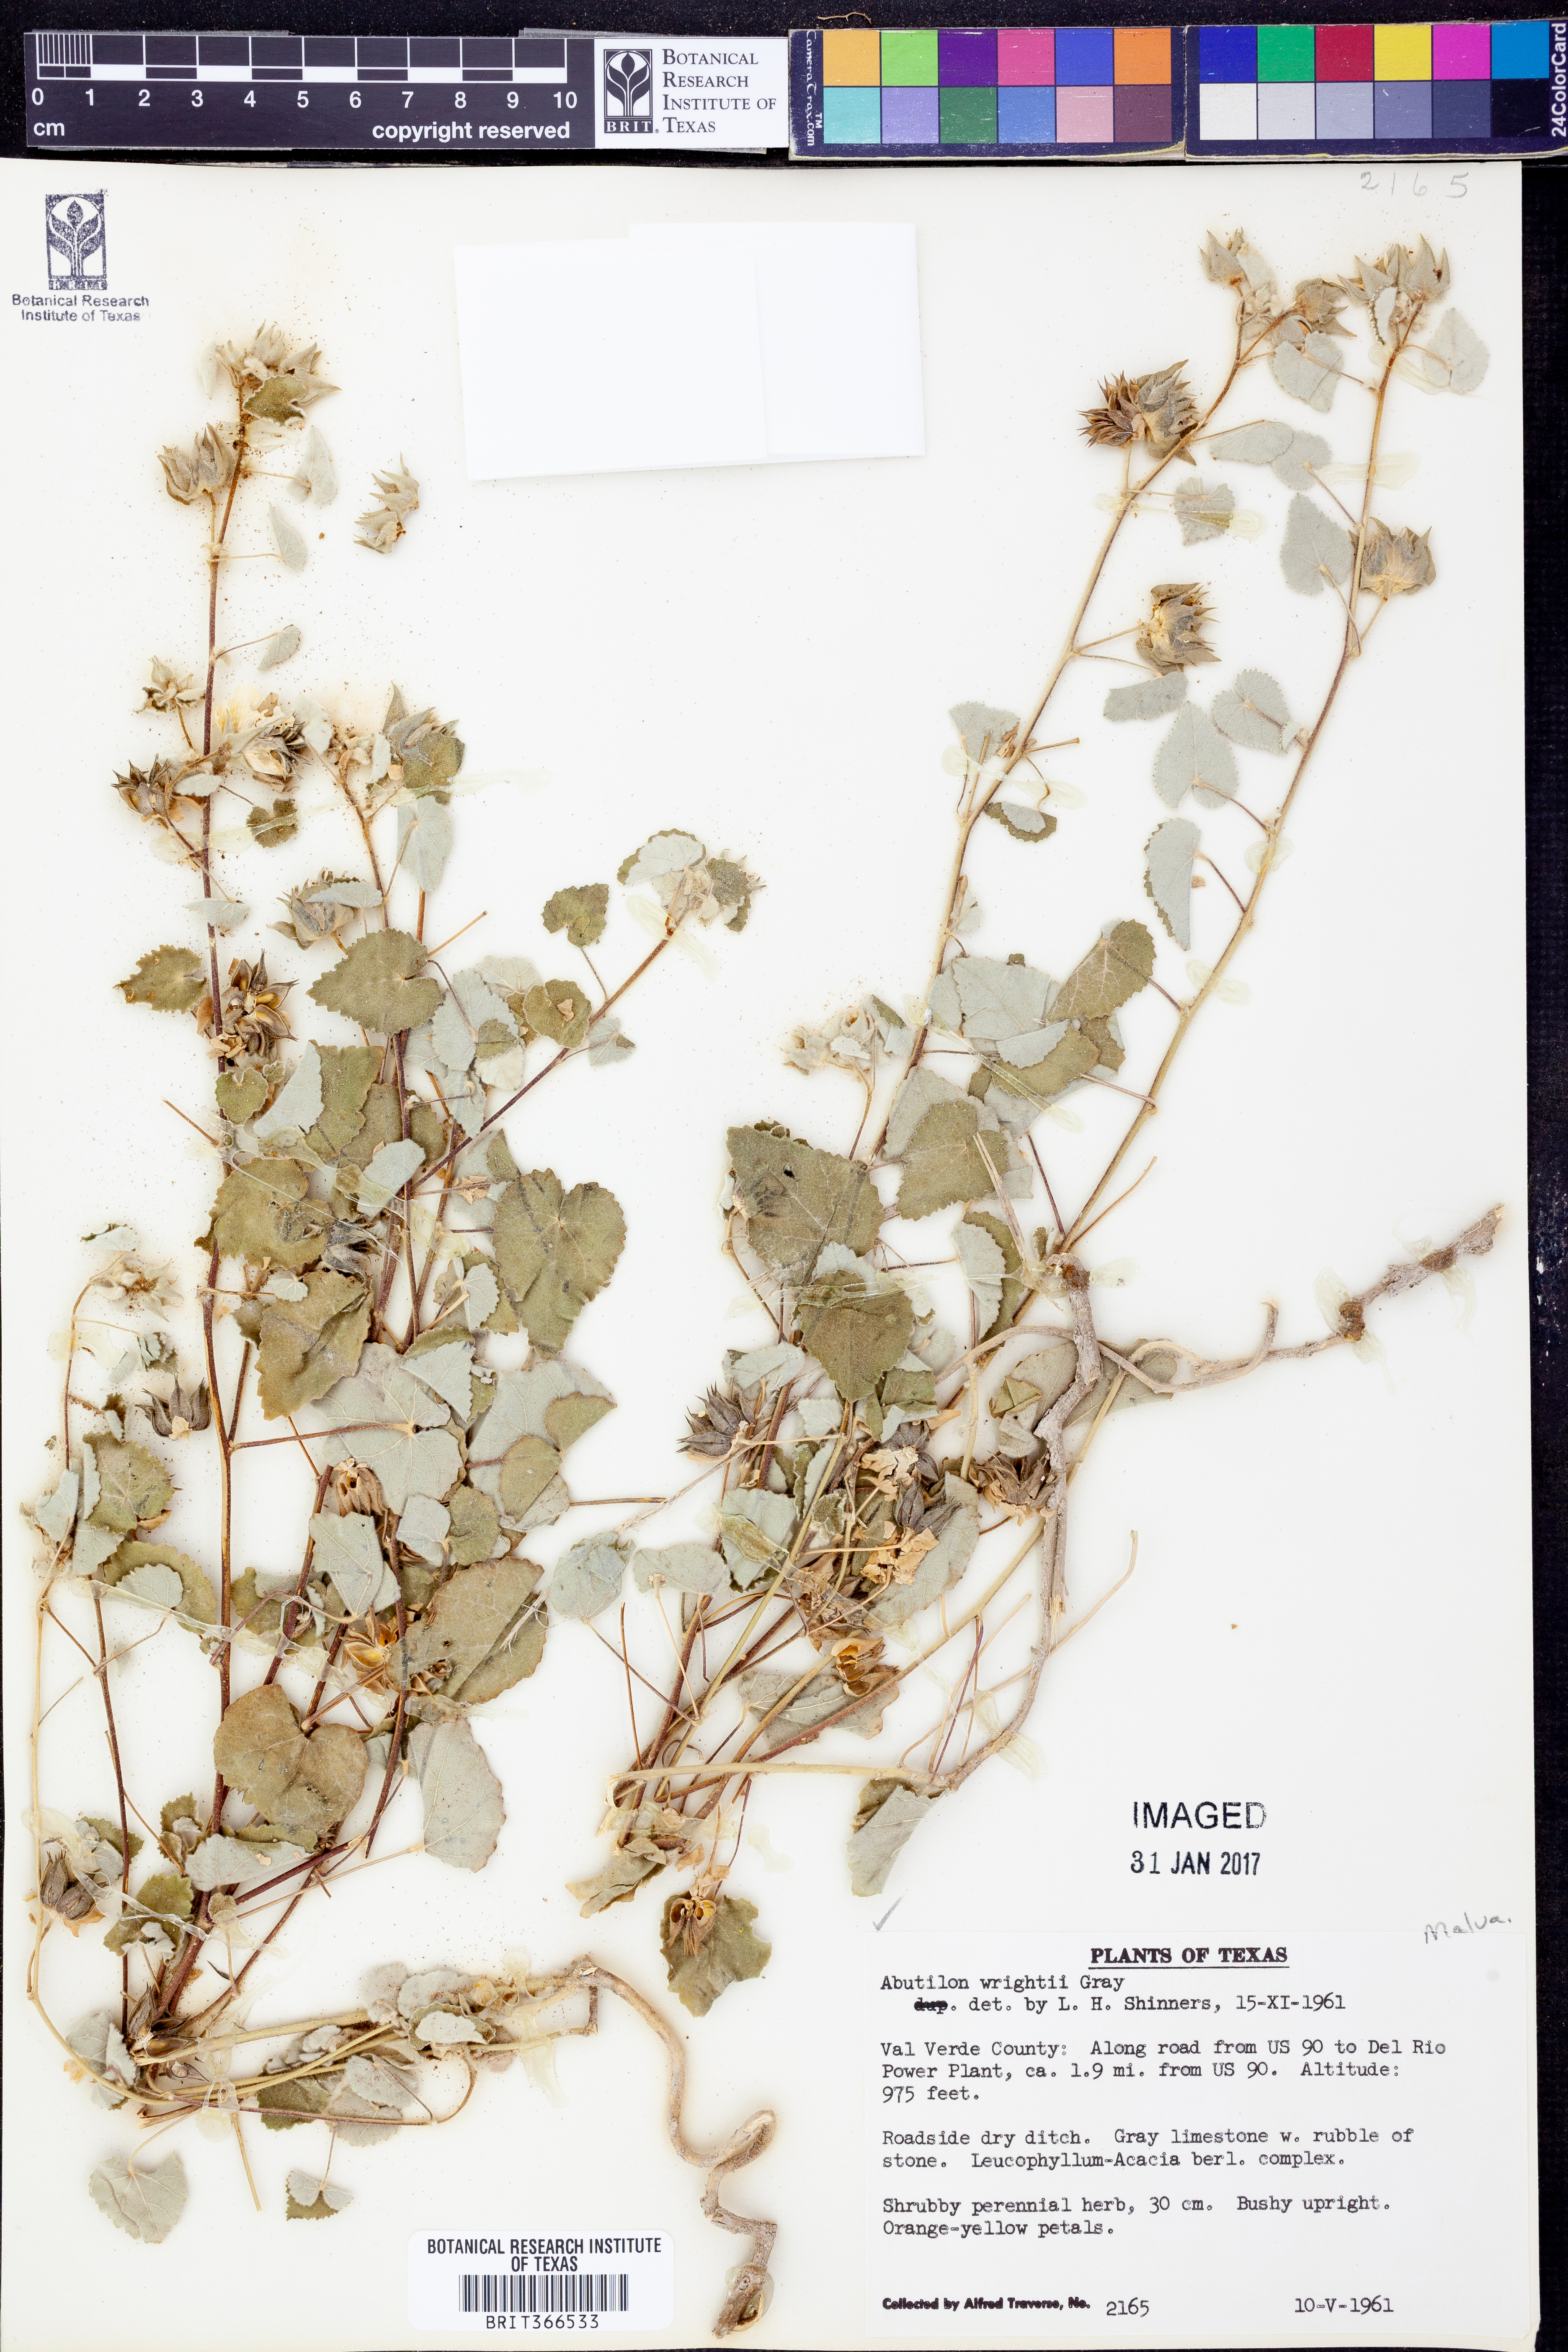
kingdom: Plantae
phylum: Tracheophyta
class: Magnoliopsida
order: Malvales
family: Malvaceae
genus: Abutilon
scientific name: Abutilon wrightii
